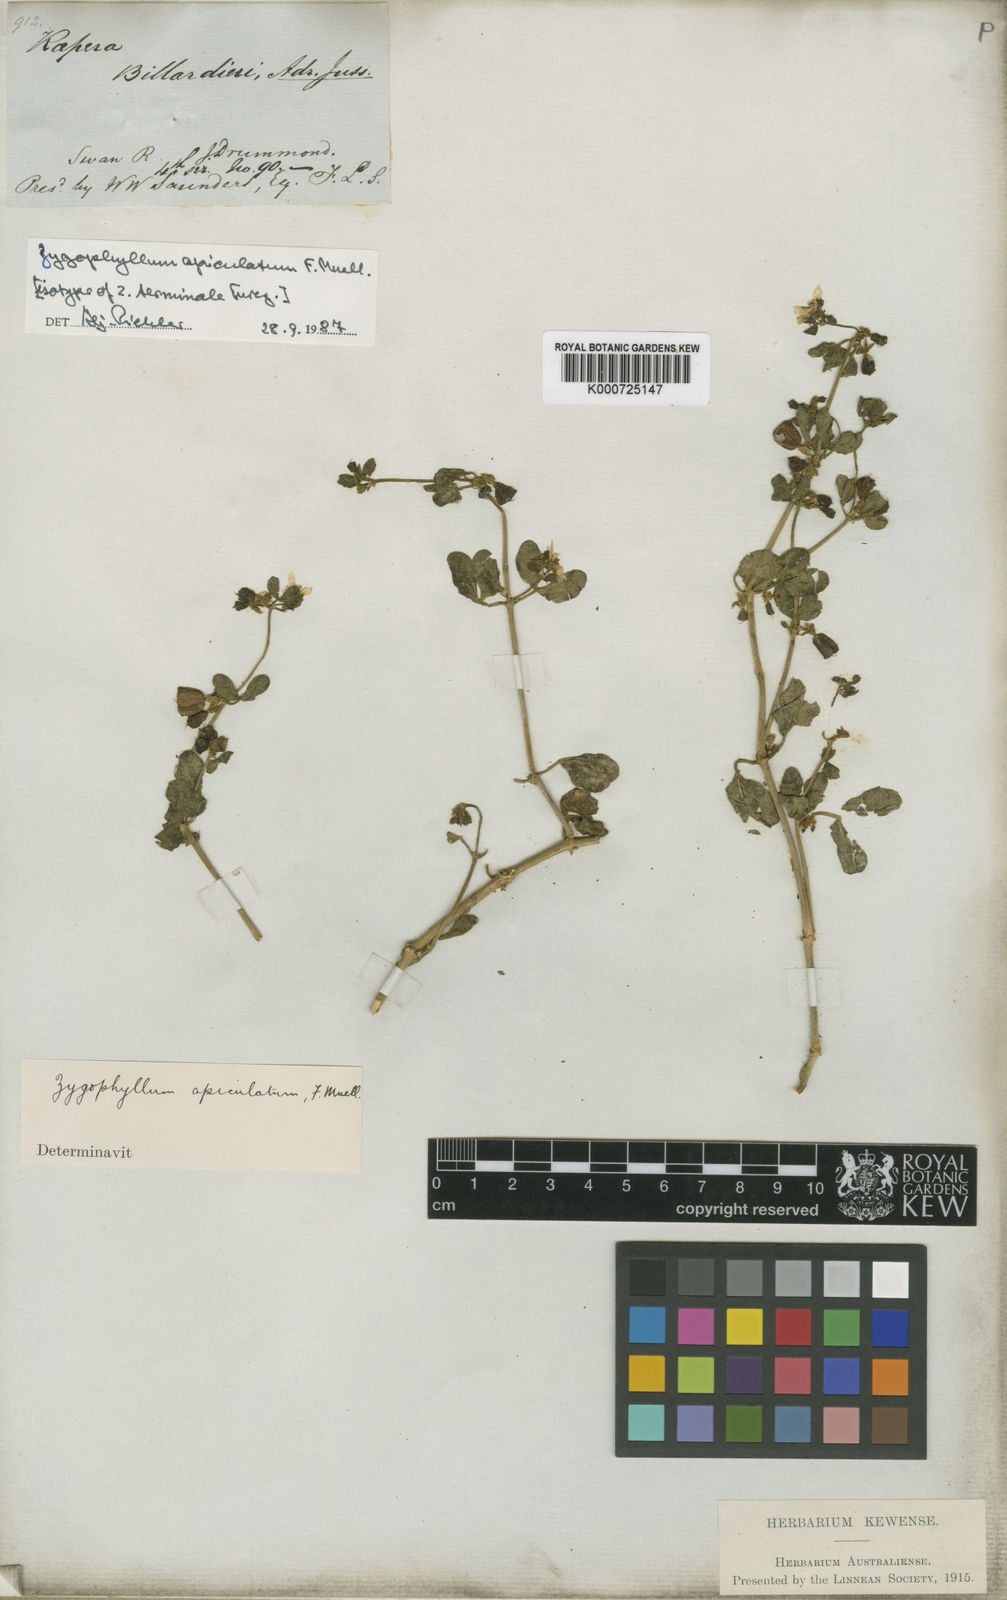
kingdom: Plantae
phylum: Tracheophyta
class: Magnoliopsida
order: Zygophyllales
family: Zygophyllaceae
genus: Roepera
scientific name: Roepera apiculata
